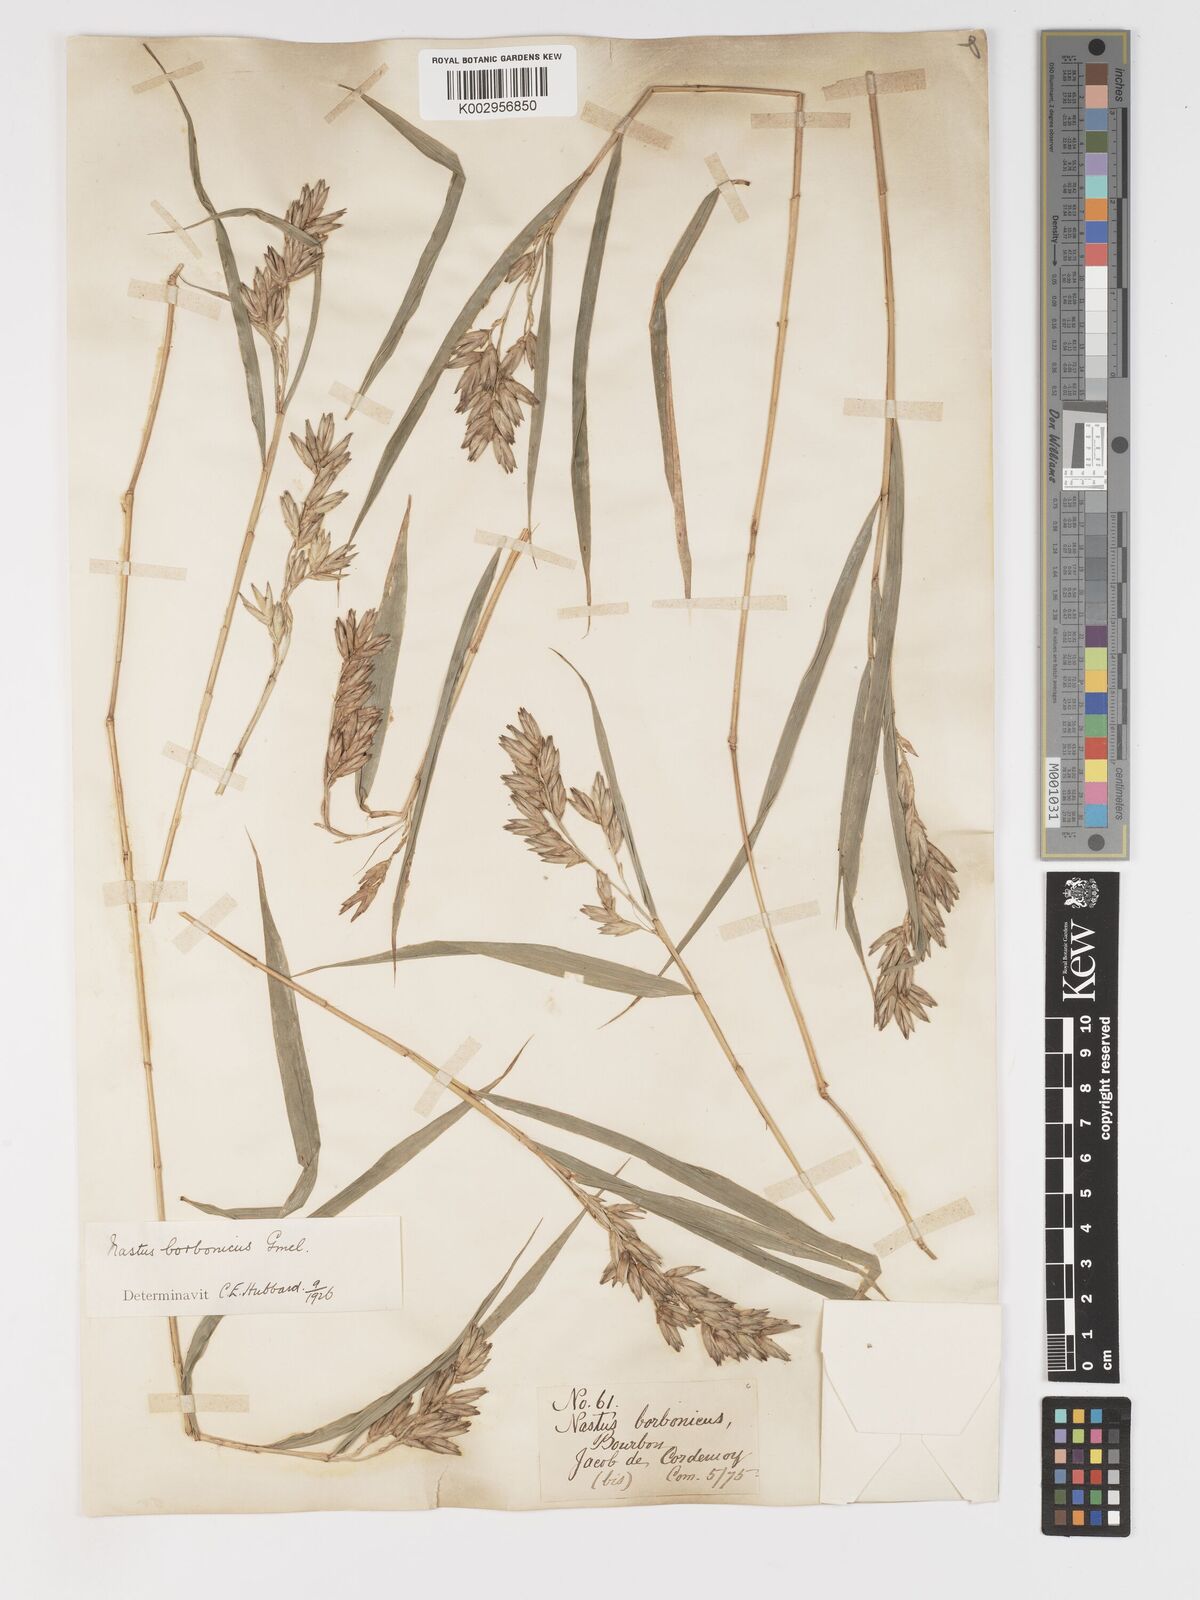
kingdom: Plantae
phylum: Tracheophyta
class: Liliopsida
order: Poales
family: Poaceae
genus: Nastus
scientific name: Nastus borbonicus
